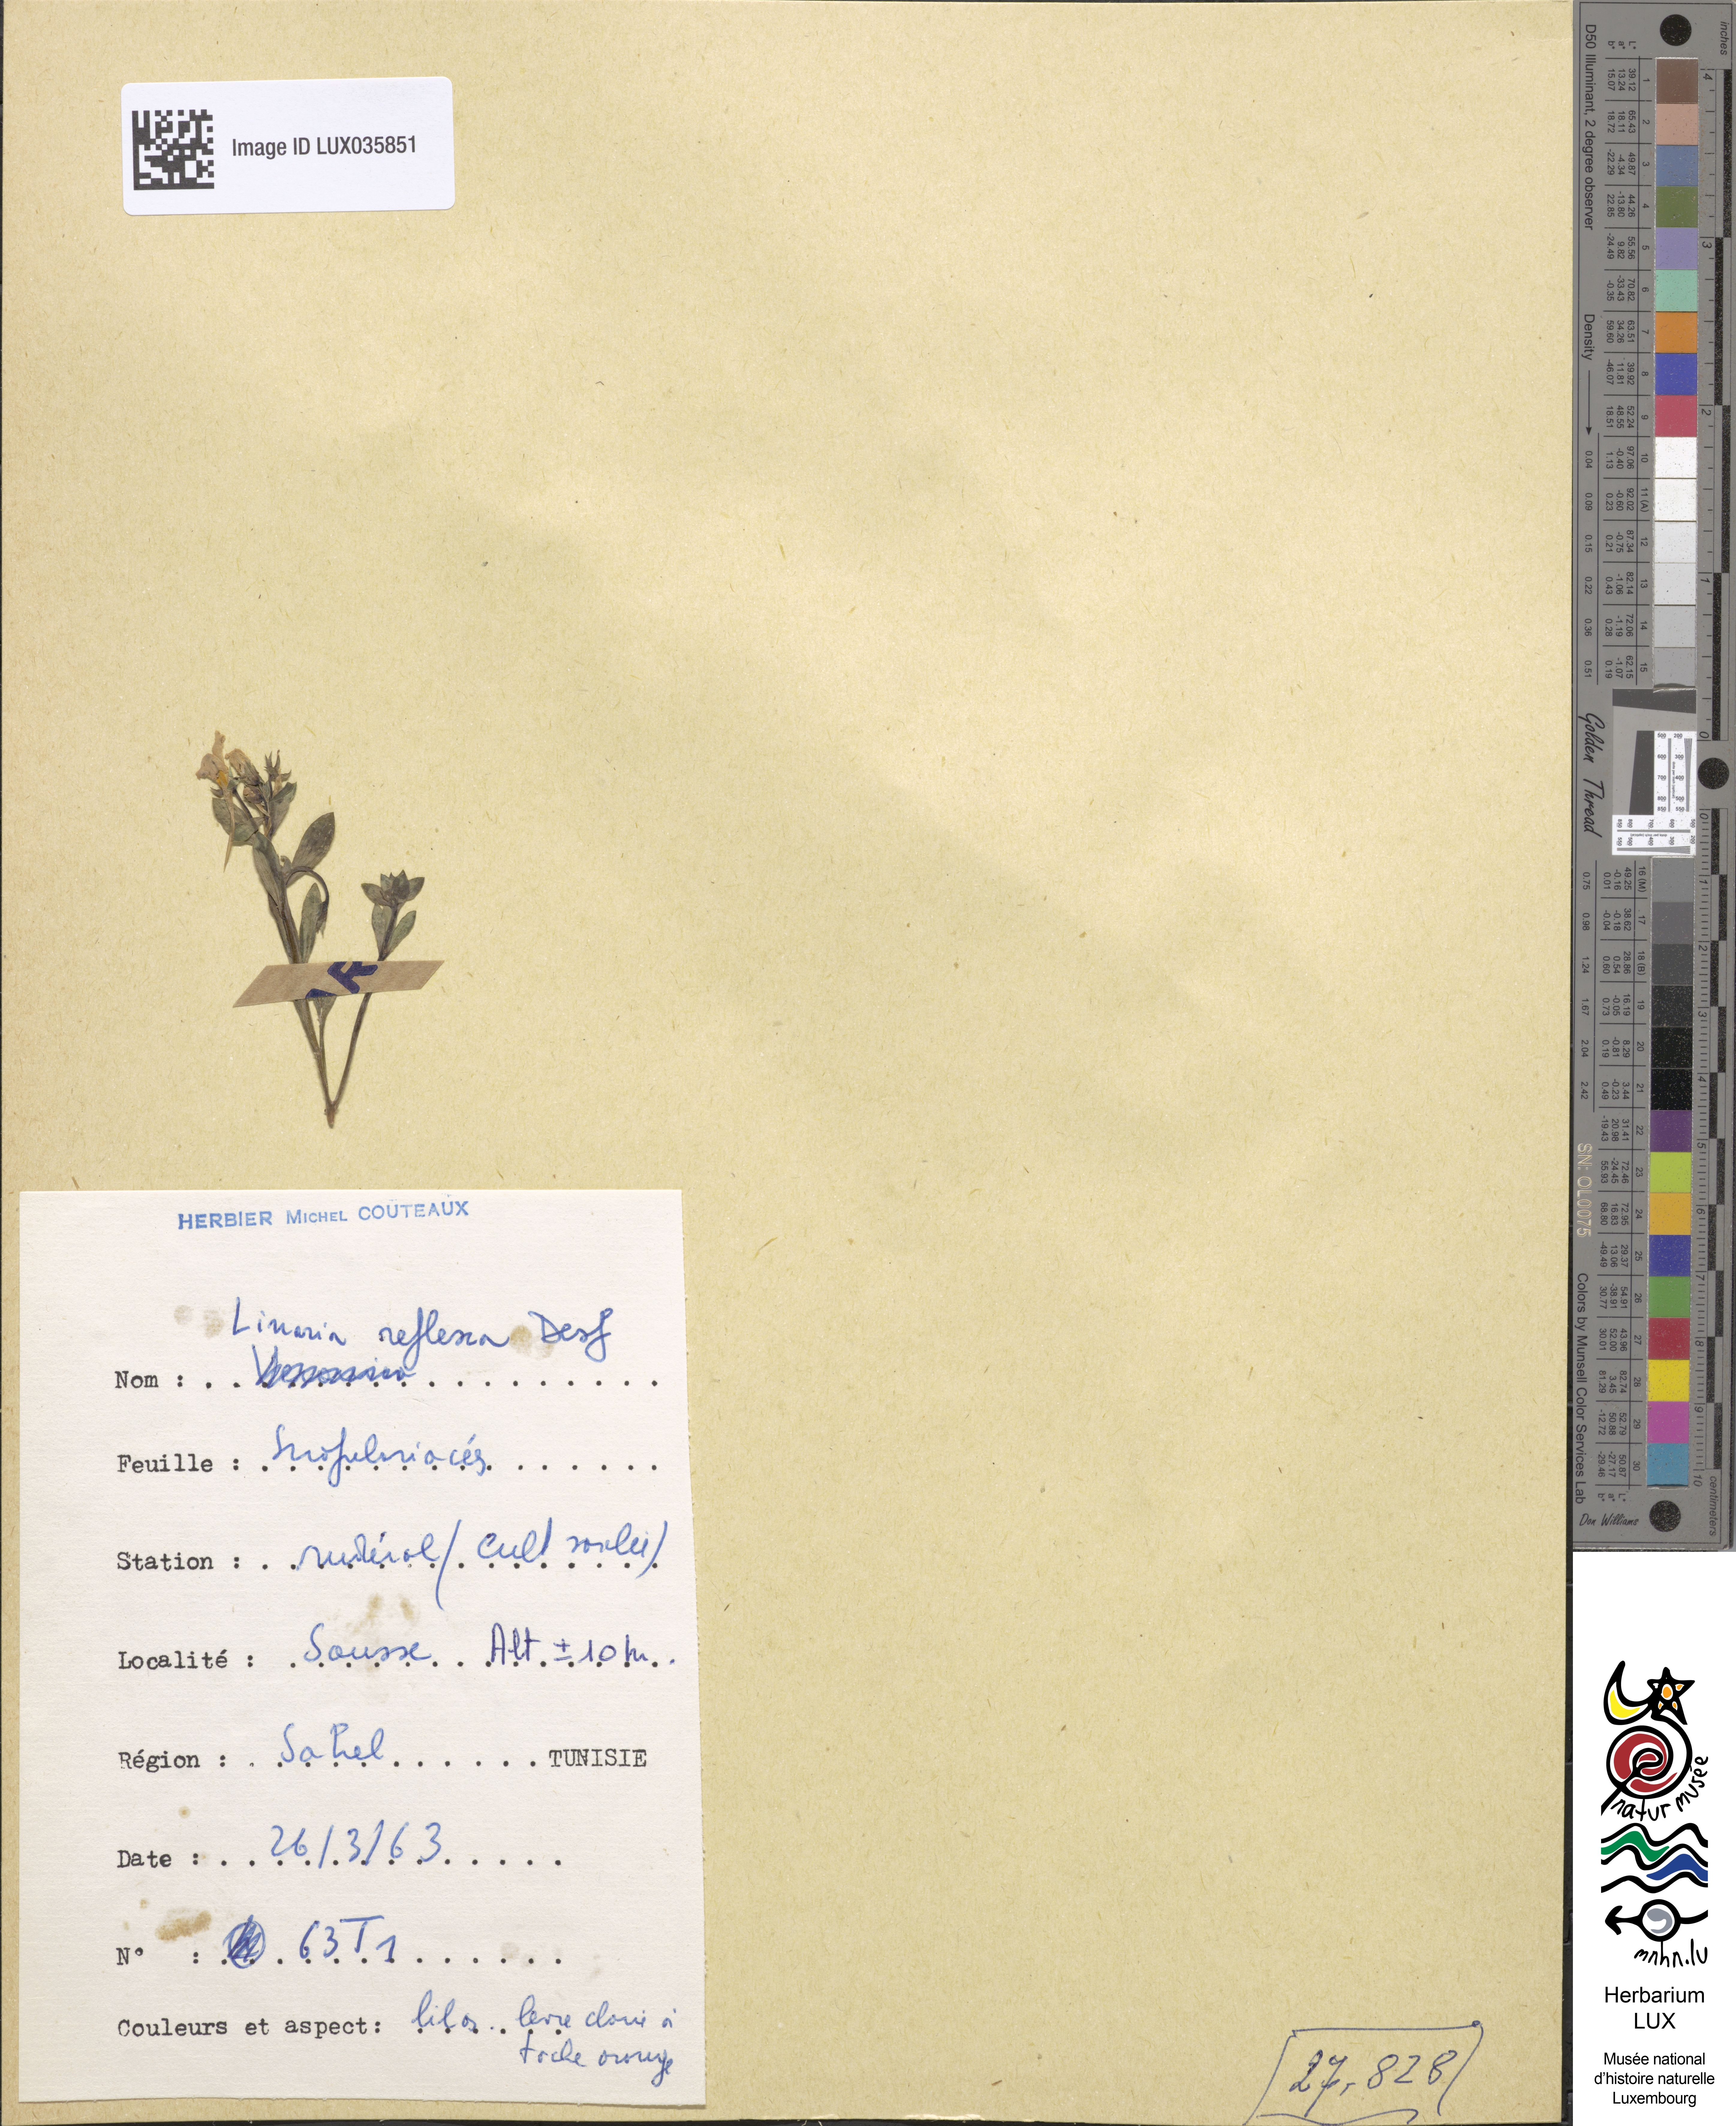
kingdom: Plantae
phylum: Tracheophyta
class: Magnoliopsida
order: Lamiales
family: Plantaginaceae
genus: Linaria
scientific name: Linaria reflexa
